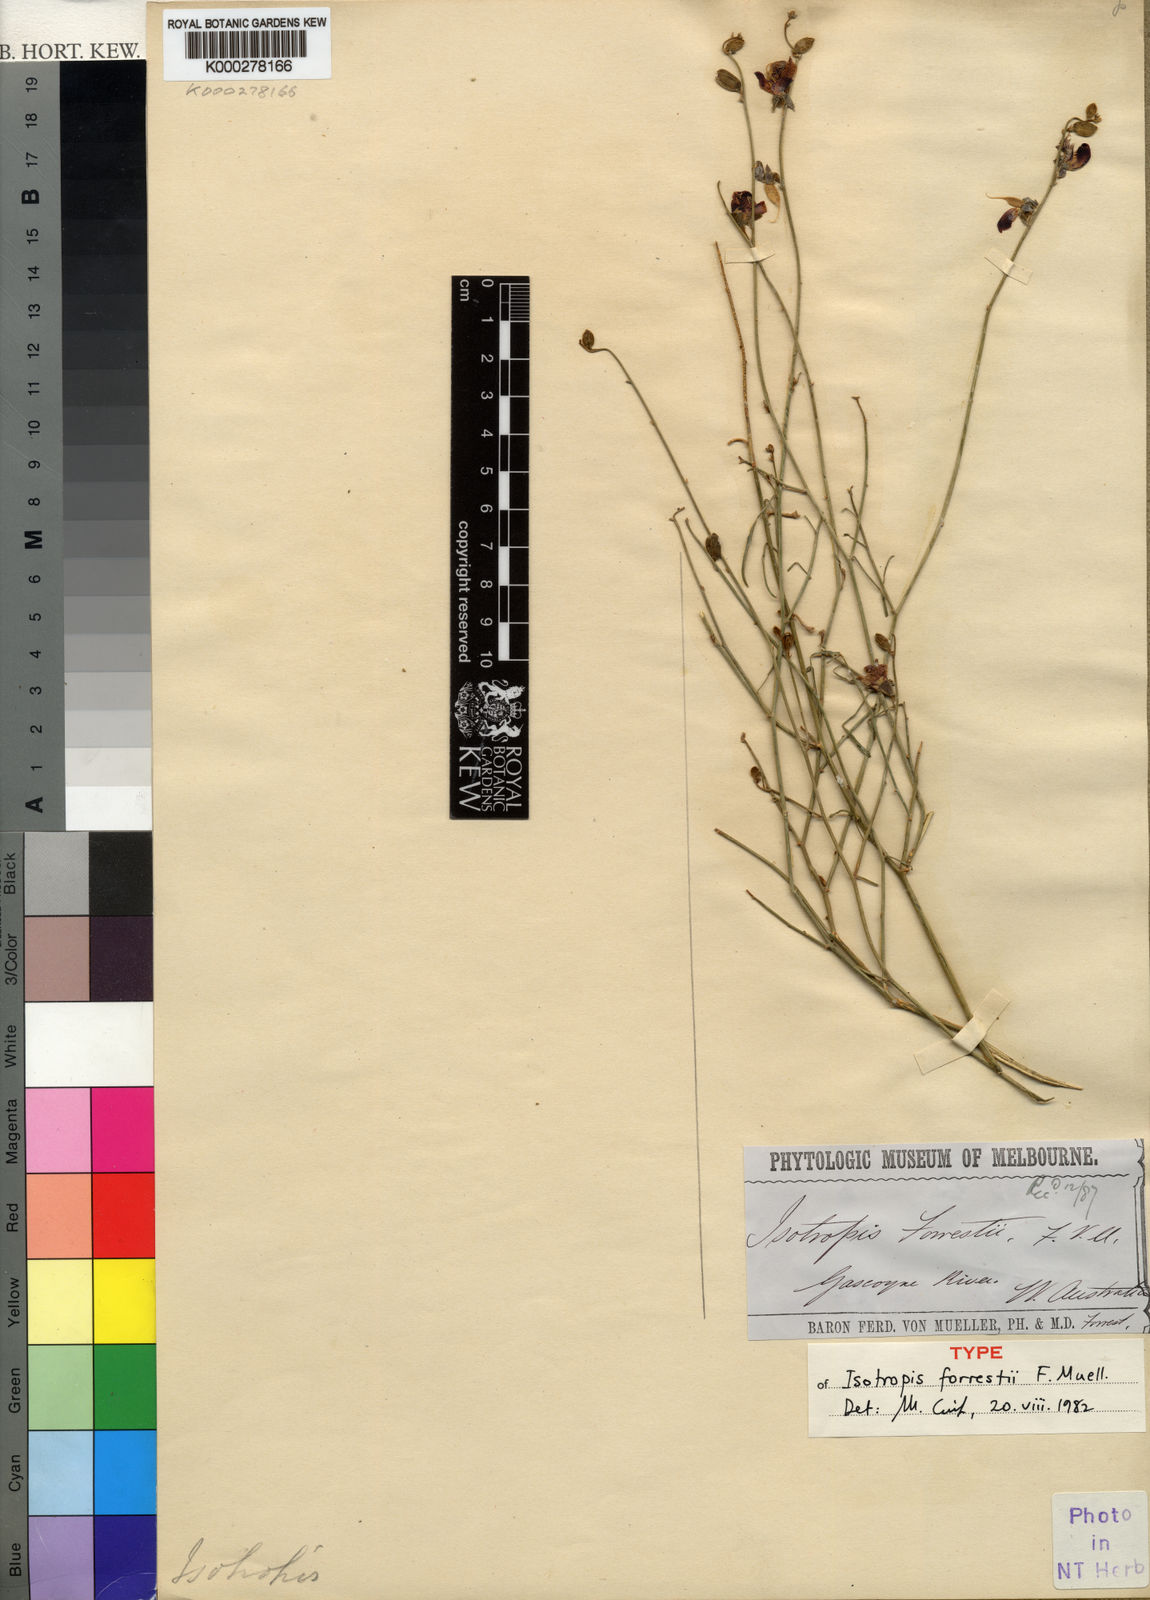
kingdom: Plantae
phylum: Tracheophyta
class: Magnoliopsida
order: Fabales
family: Fabaceae
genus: Isotropis
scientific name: Isotropis forrestii
